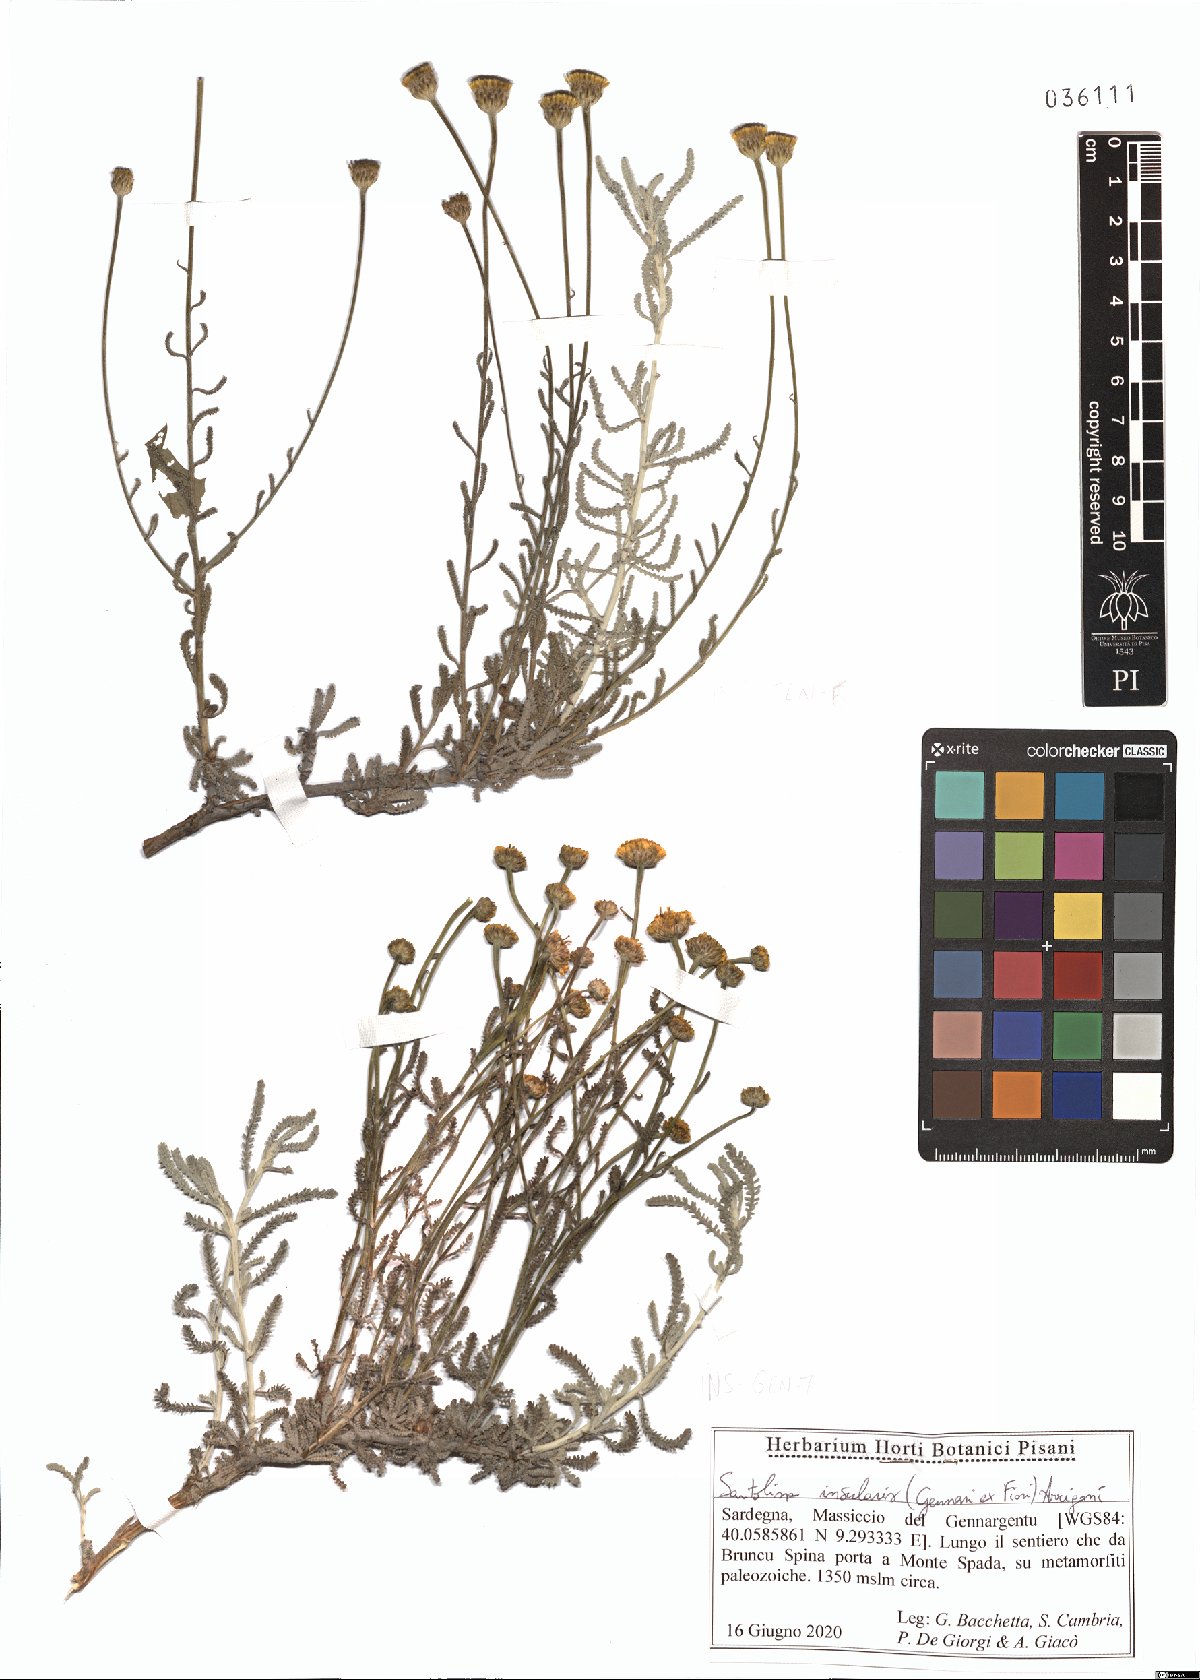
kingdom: Plantae
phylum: Tracheophyta
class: Magnoliopsida
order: Asterales
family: Asteraceae
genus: Santolina
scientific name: Santolina insularis
